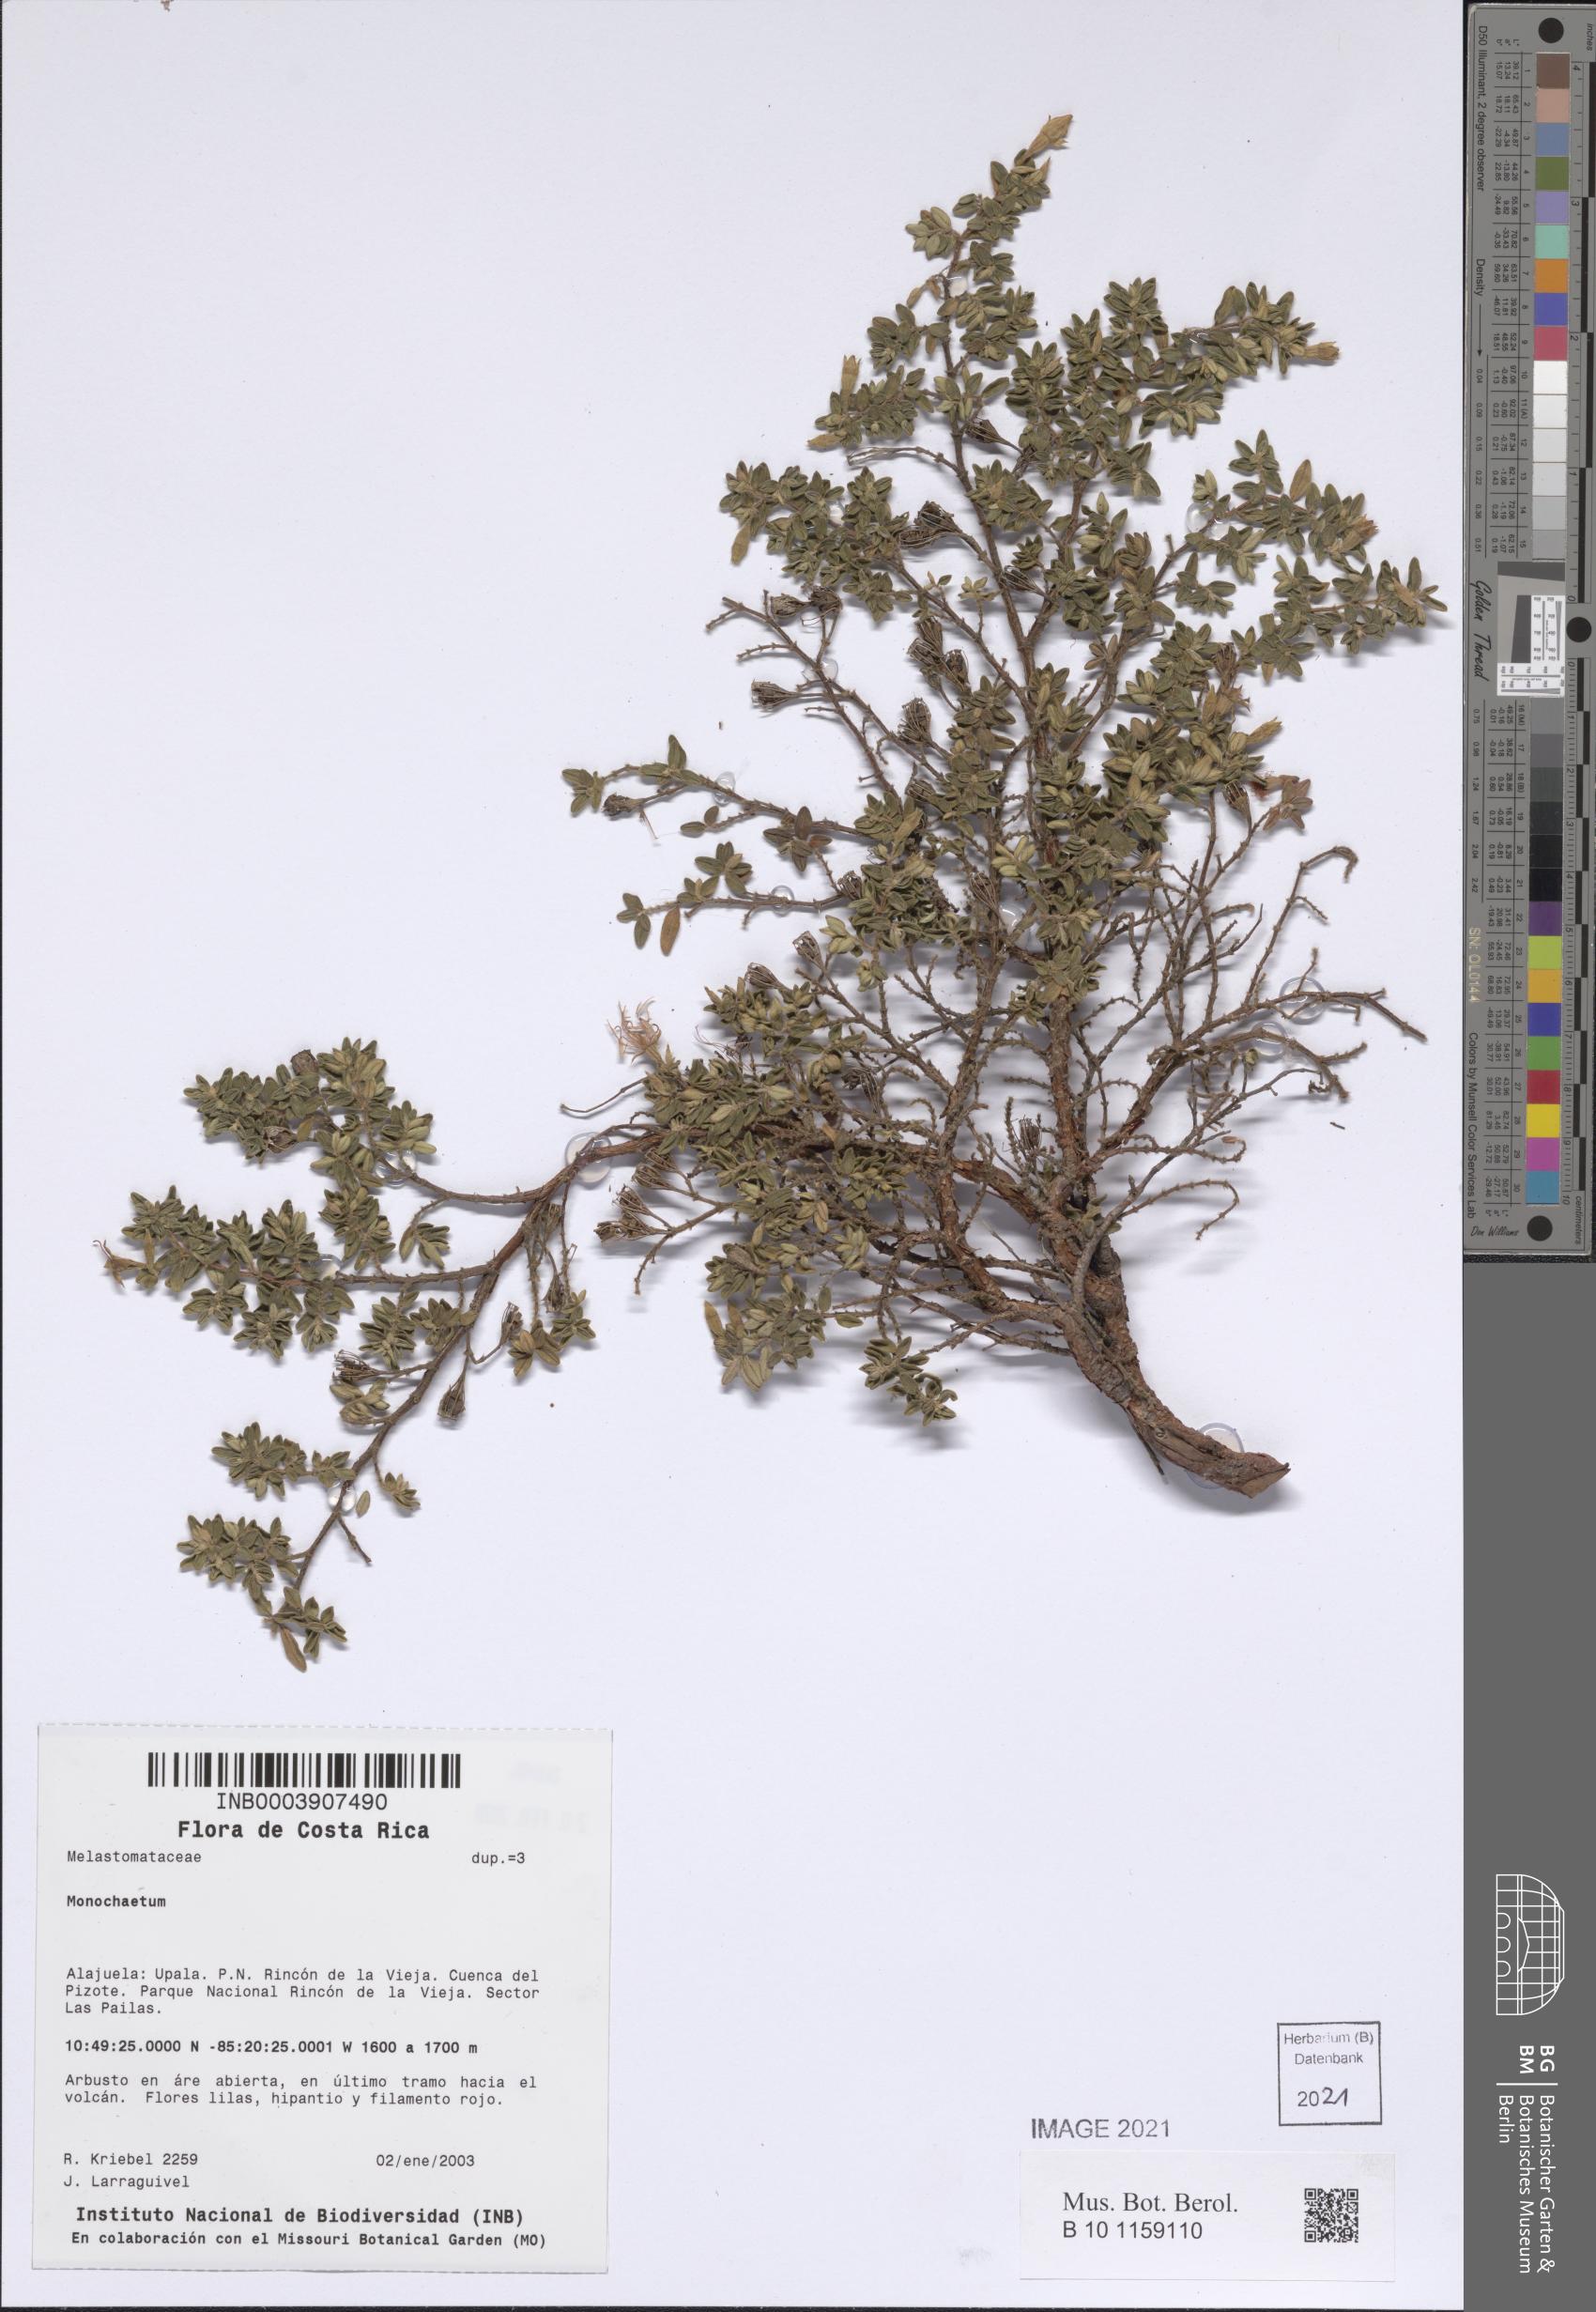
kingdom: Plantae
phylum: Tracheophyta
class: Magnoliopsida
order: Myrtales
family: Melastomataceae
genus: Monochaetum
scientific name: Monochaetum
